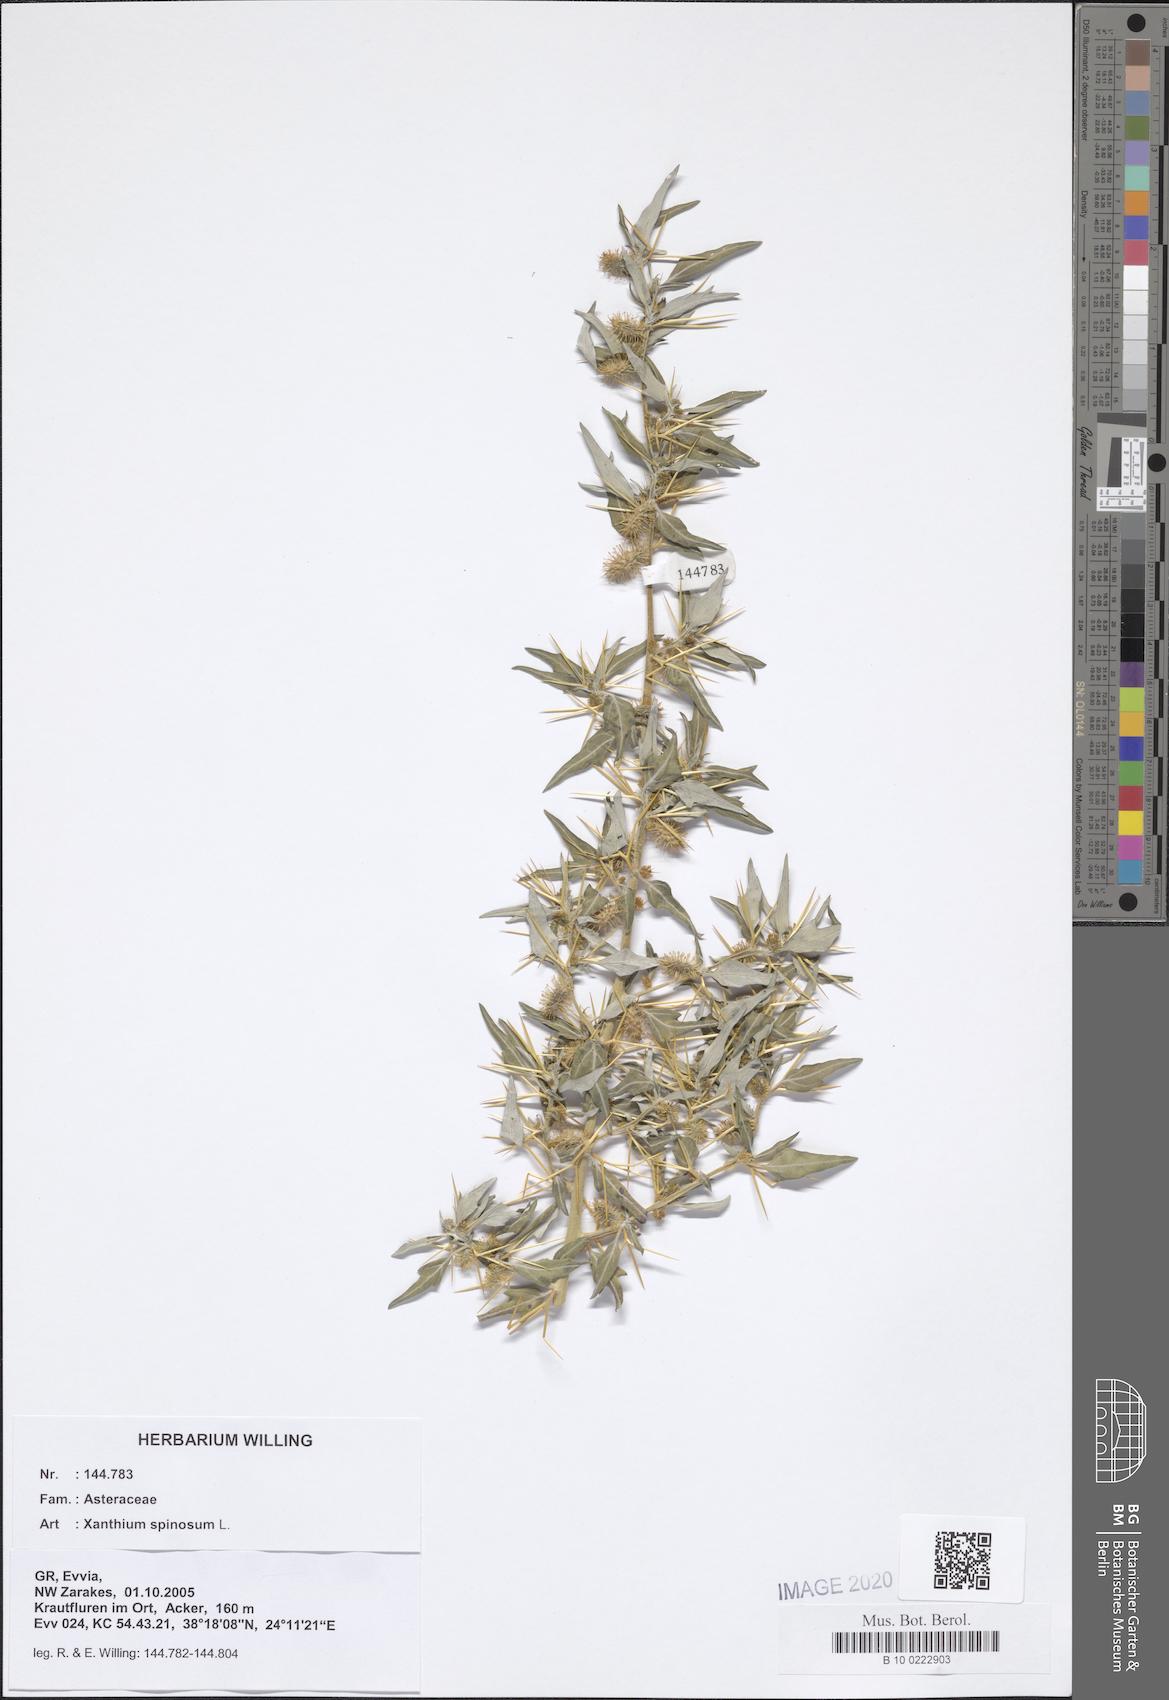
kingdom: Plantae
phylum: Tracheophyta
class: Magnoliopsida
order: Asterales
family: Asteraceae
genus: Xanthium
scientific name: Xanthium spinosum
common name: Spiny cocklebur
